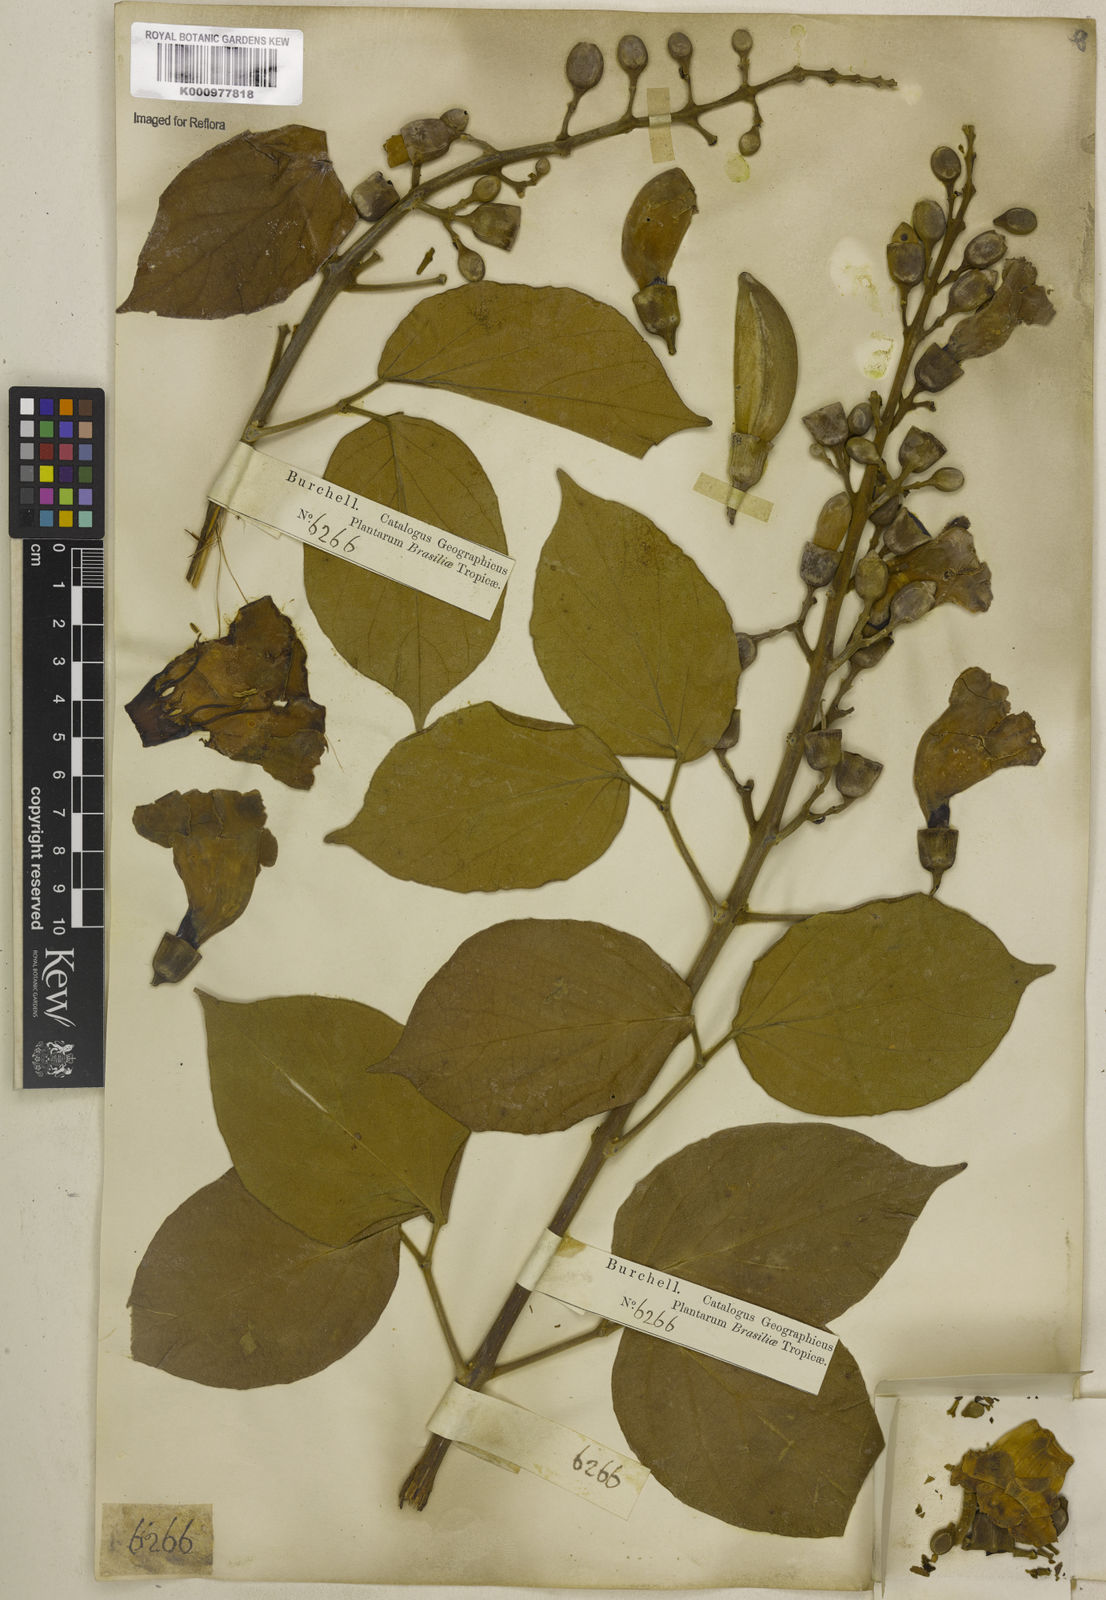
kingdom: Plantae
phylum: Tracheophyta
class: Magnoliopsida
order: Lamiales
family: Bignoniaceae
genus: Amphilophium
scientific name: Amphilophium mansoanum
